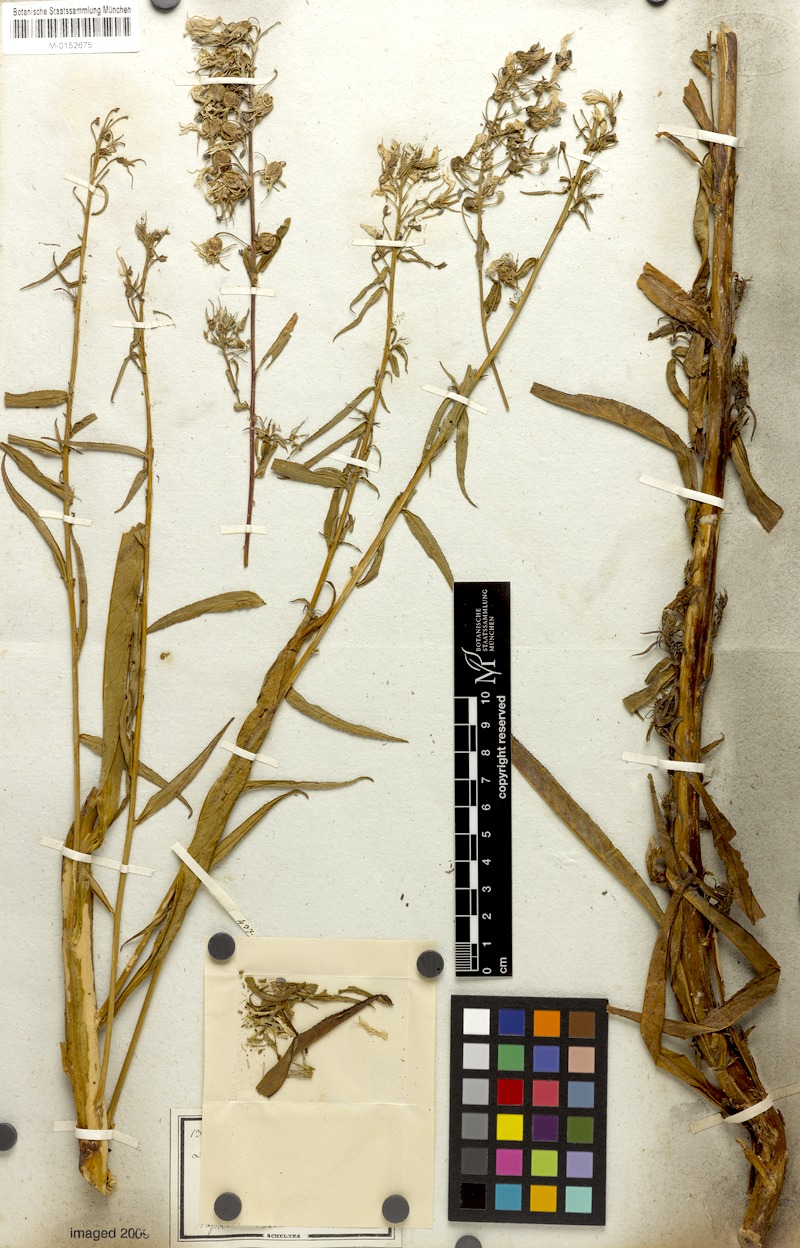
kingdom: Plantae
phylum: Tracheophyta
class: Magnoliopsida
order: Asterales
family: Campanulaceae
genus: Lobelia
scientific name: Lobelia pyramidalis
